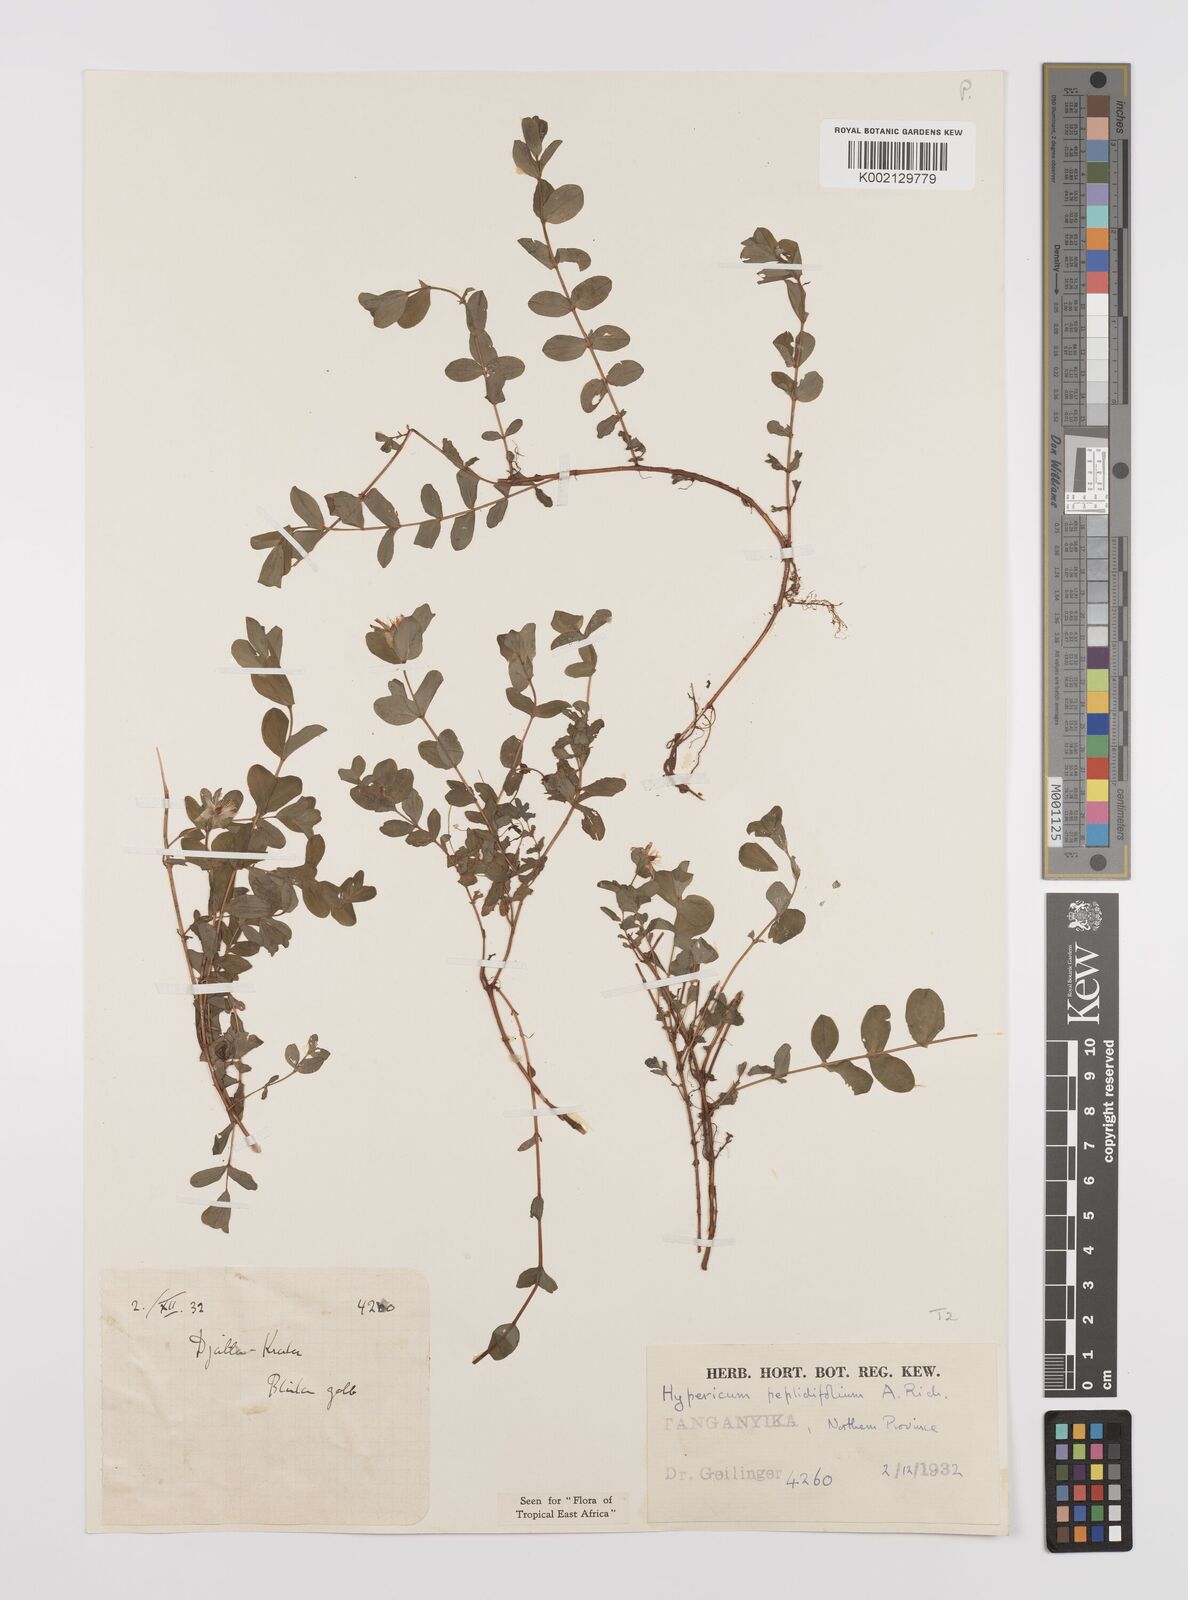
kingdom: Plantae
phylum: Tracheophyta
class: Magnoliopsida
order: Malpighiales
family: Hypericaceae
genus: Hypericum
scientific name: Hypericum peplidifolium
